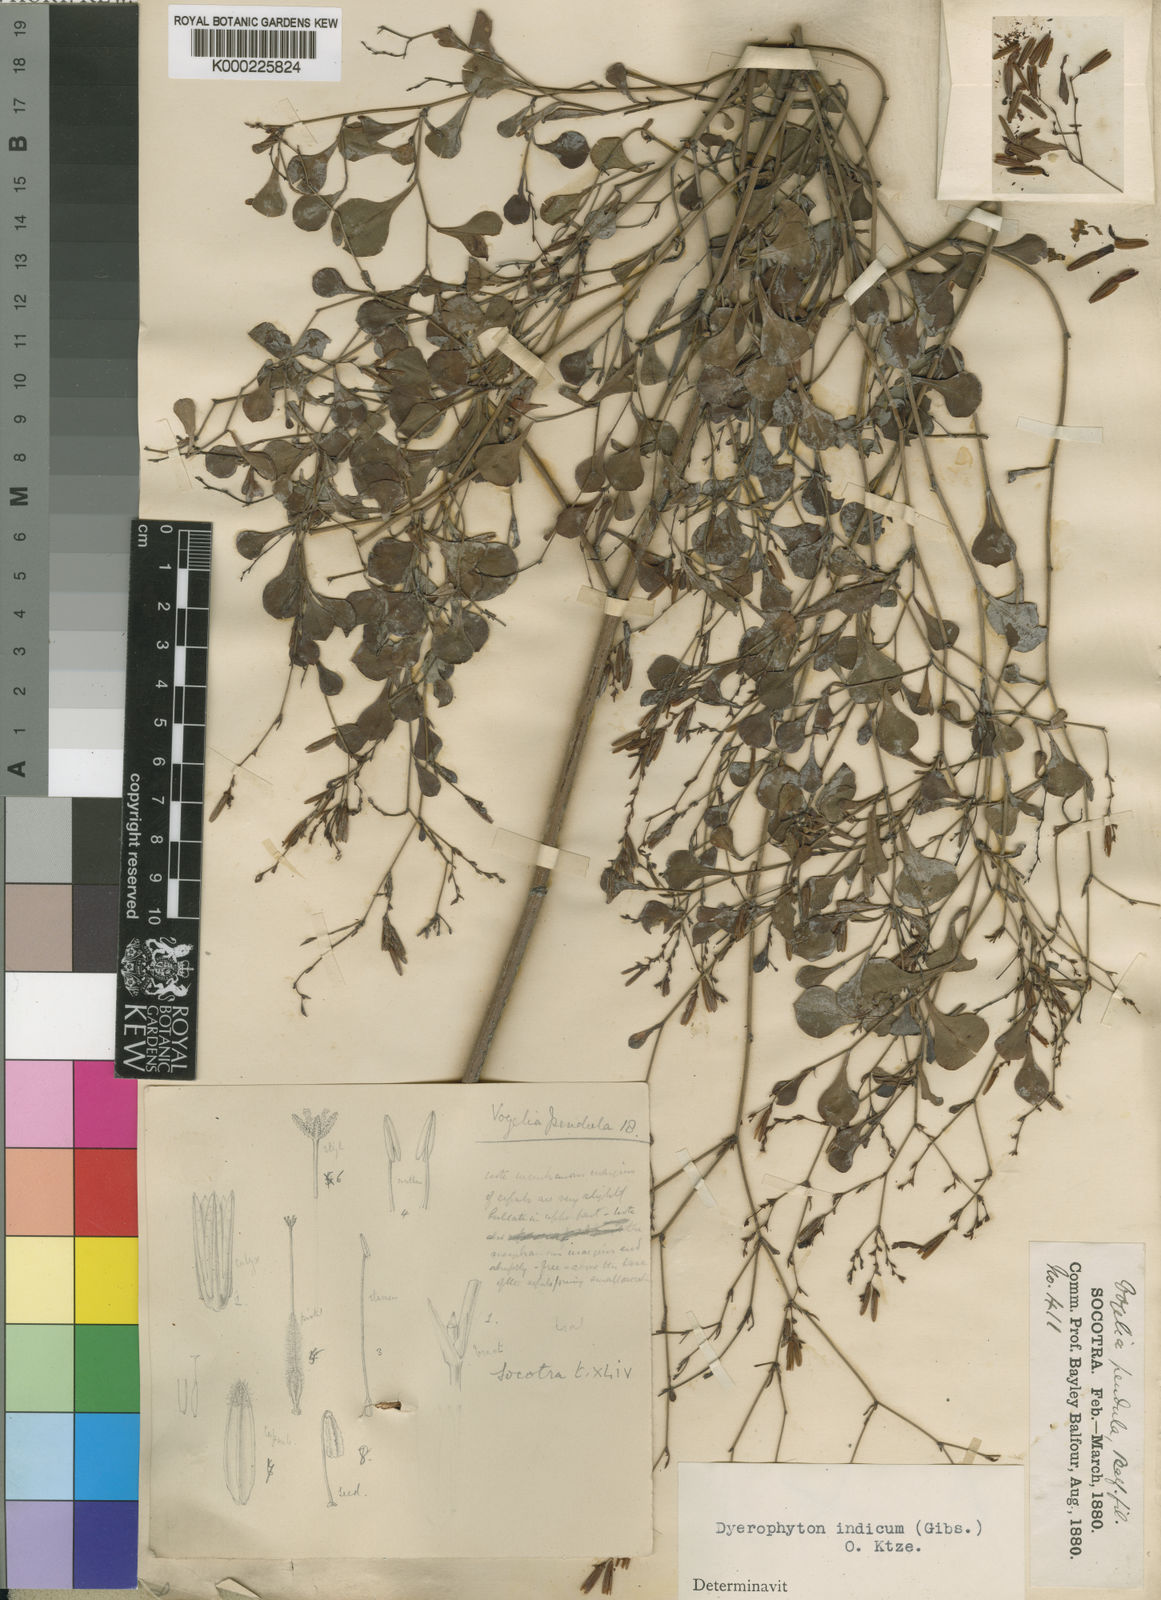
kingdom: Plantae
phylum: Tracheophyta
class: Magnoliopsida
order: Caryophyllales
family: Plumbaginaceae
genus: Dyerophytum
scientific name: Dyerophytum indicum
